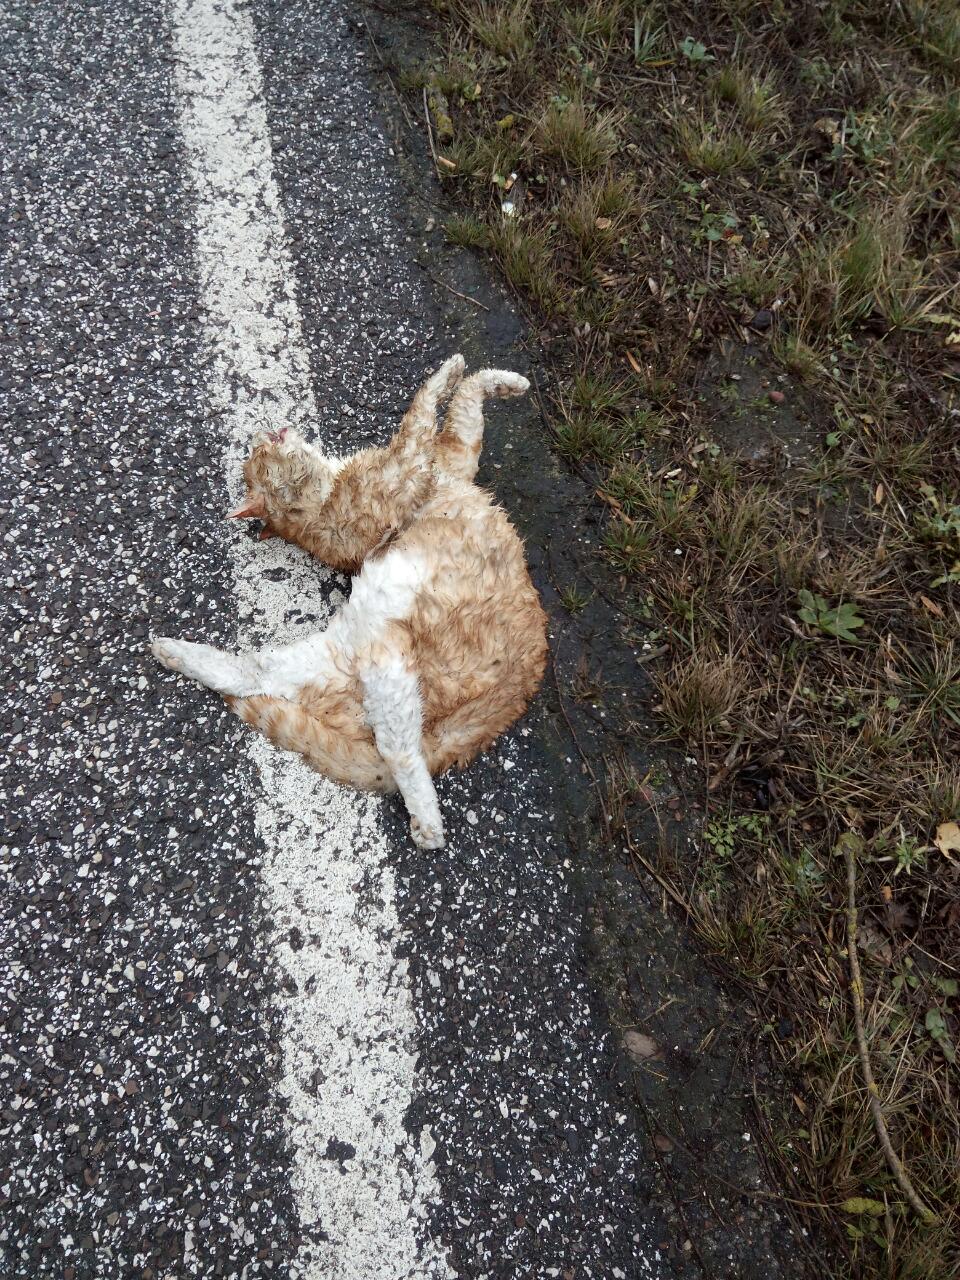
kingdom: Animalia
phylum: Chordata
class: Mammalia
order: Carnivora
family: Felidae
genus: Felis
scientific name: Felis catus
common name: Domestic cat
